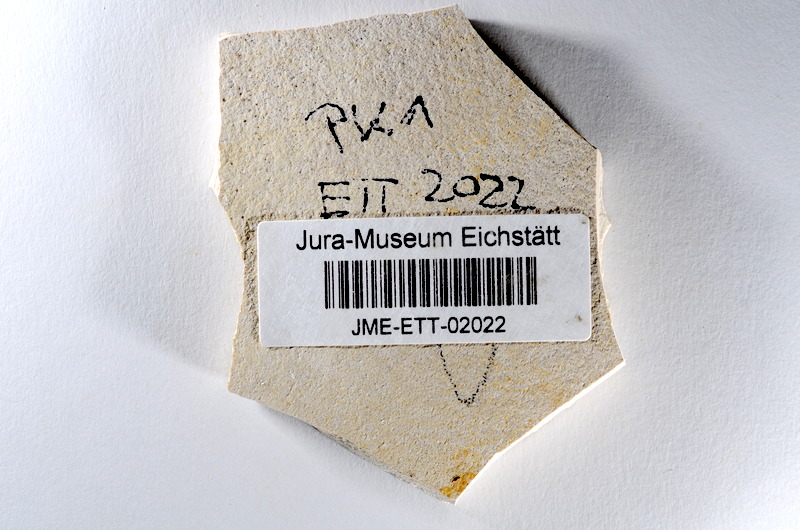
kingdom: Animalia
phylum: Chordata
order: Salmoniformes
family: Orthogonikleithridae
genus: Orthogonikleithrus
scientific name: Orthogonikleithrus hoelli
